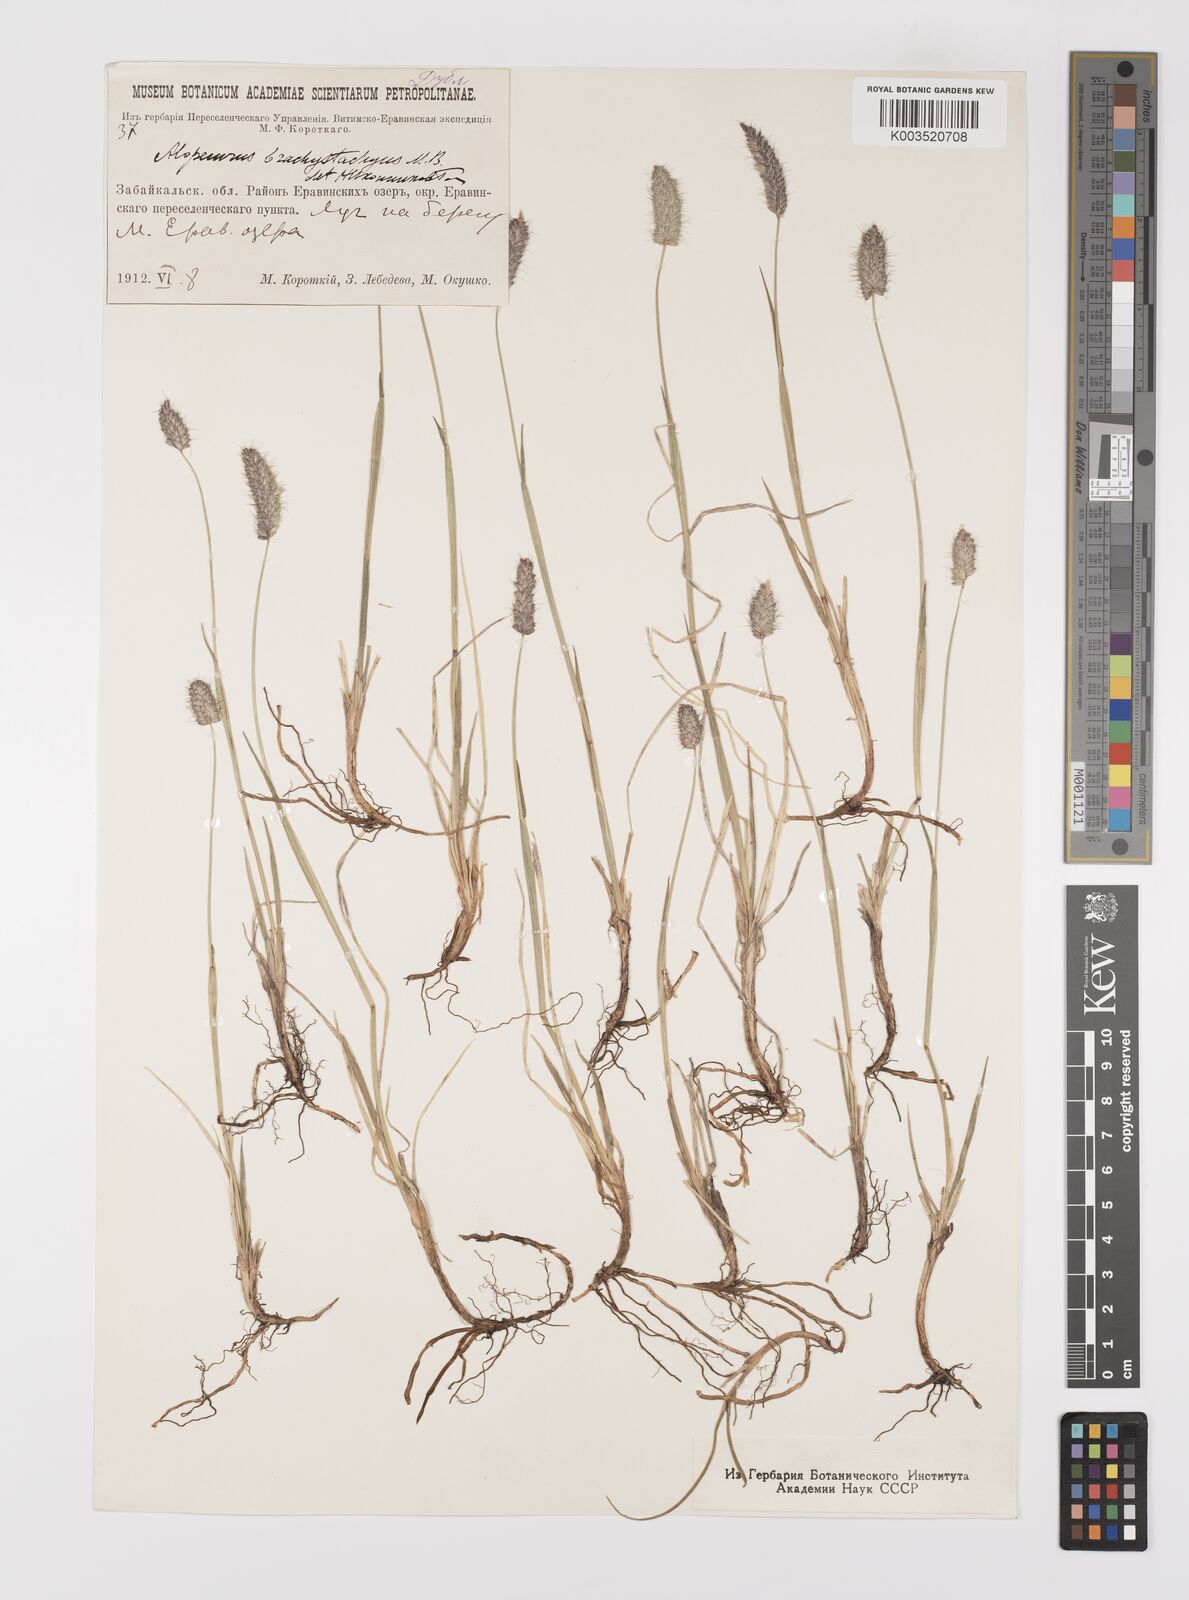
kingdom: Plantae
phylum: Tracheophyta
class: Liliopsida
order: Poales
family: Poaceae
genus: Alopecurus
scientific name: Alopecurus brachystachyus
